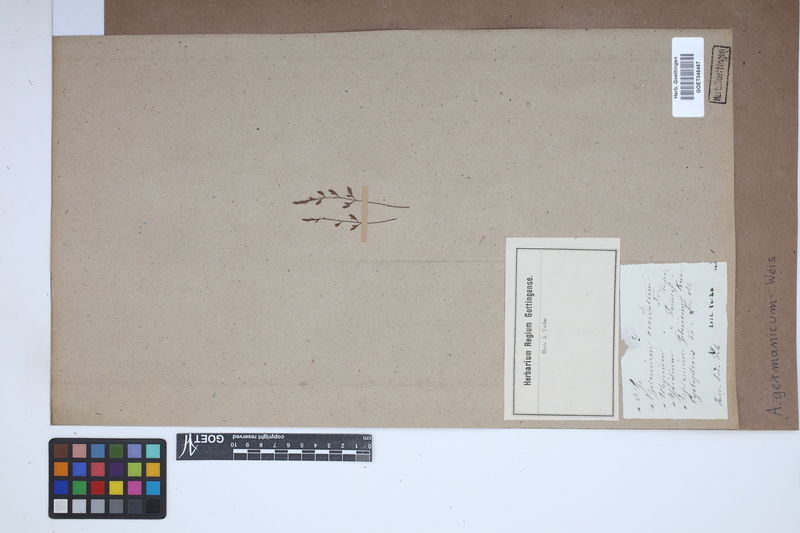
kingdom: Plantae
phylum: Tracheophyta
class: Polypodiopsida
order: Polypodiales
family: Aspleniaceae
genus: Asplenium
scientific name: Asplenium
